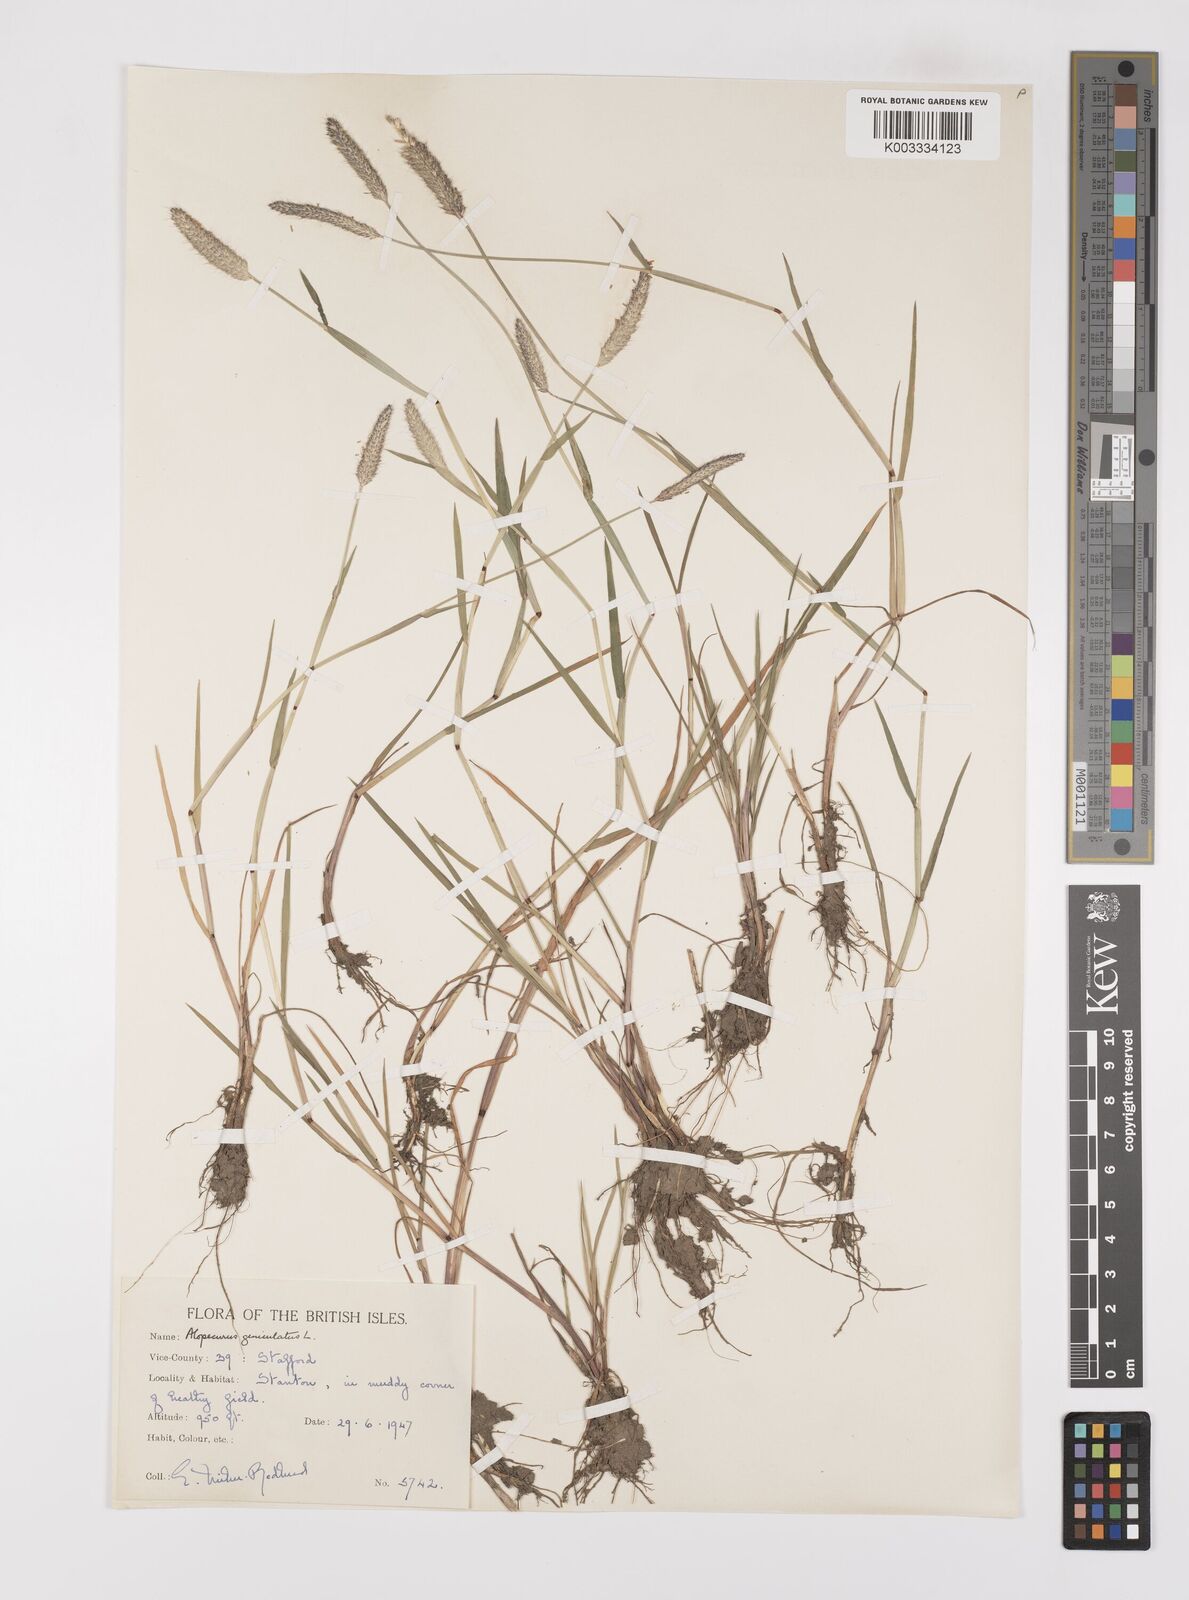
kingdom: Plantae
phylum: Tracheophyta
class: Liliopsida
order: Poales
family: Poaceae
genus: Alopecurus
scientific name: Alopecurus geniculatus
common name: Water foxtail
